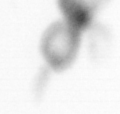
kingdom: Animalia
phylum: Arthropoda
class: Copepoda
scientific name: Copepoda
